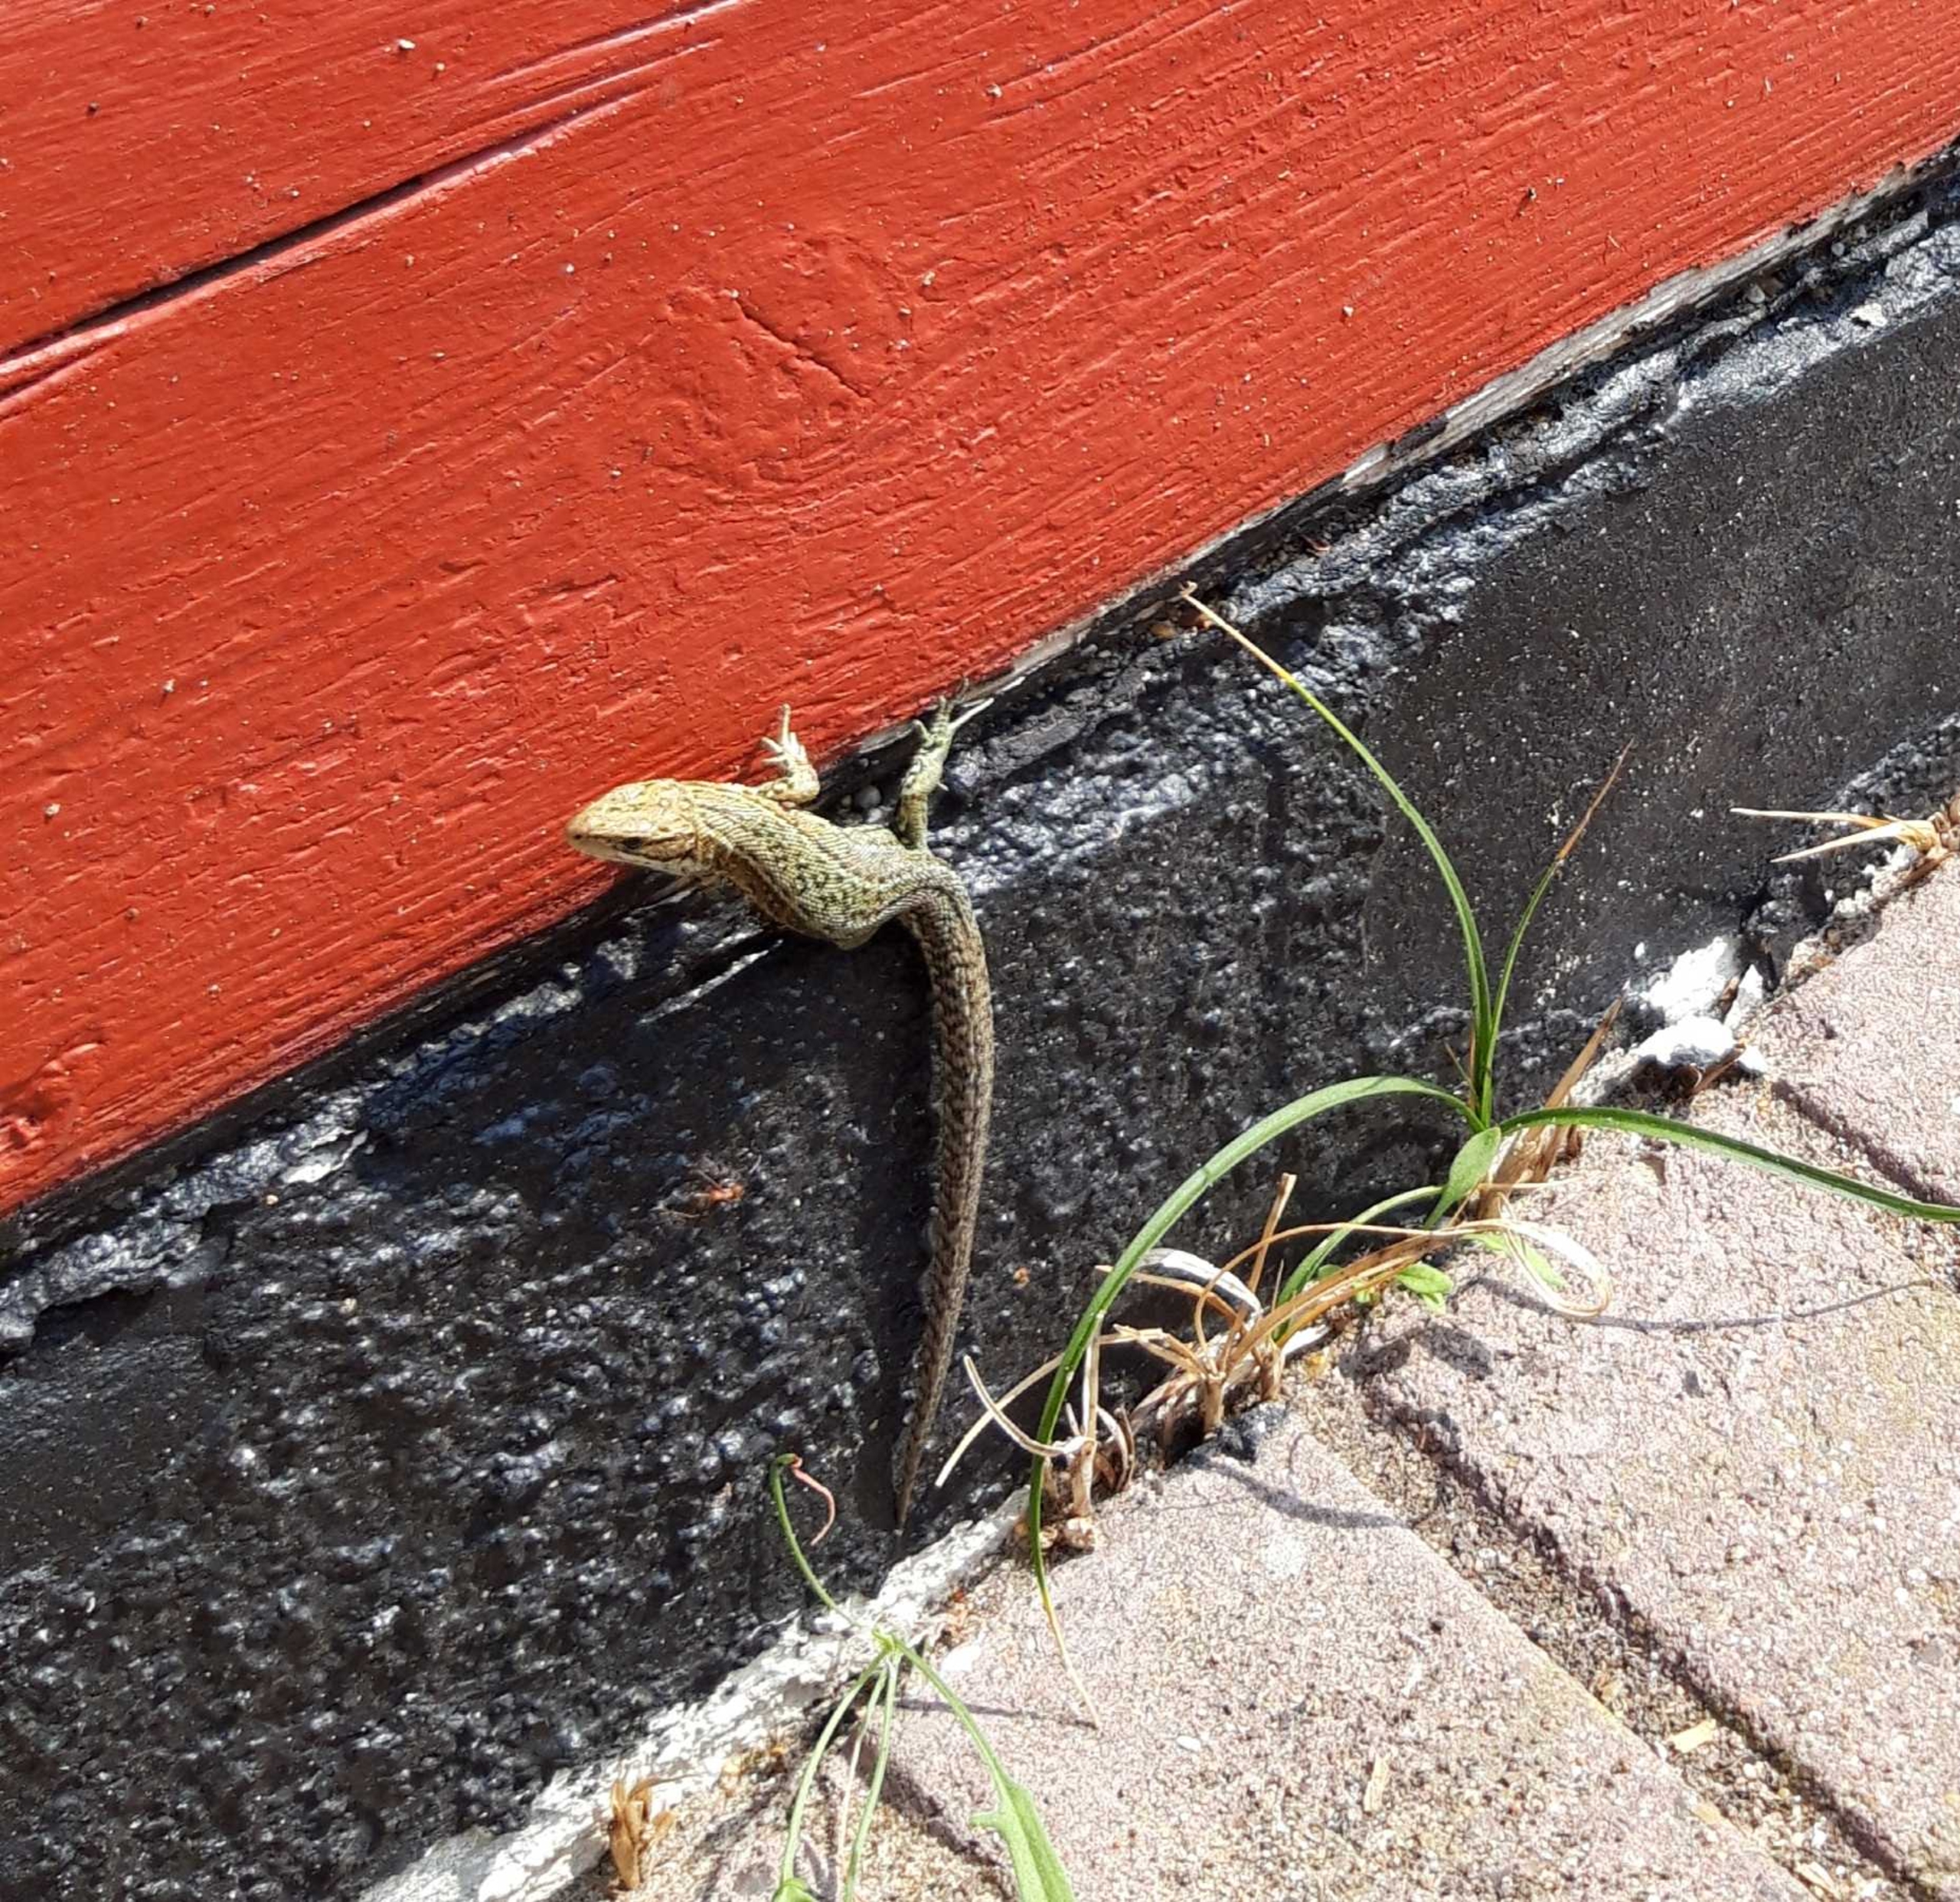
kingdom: Animalia
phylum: Chordata
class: Squamata
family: Lacertidae
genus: Zootoca
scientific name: Zootoca vivipara
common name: Skovfirben
